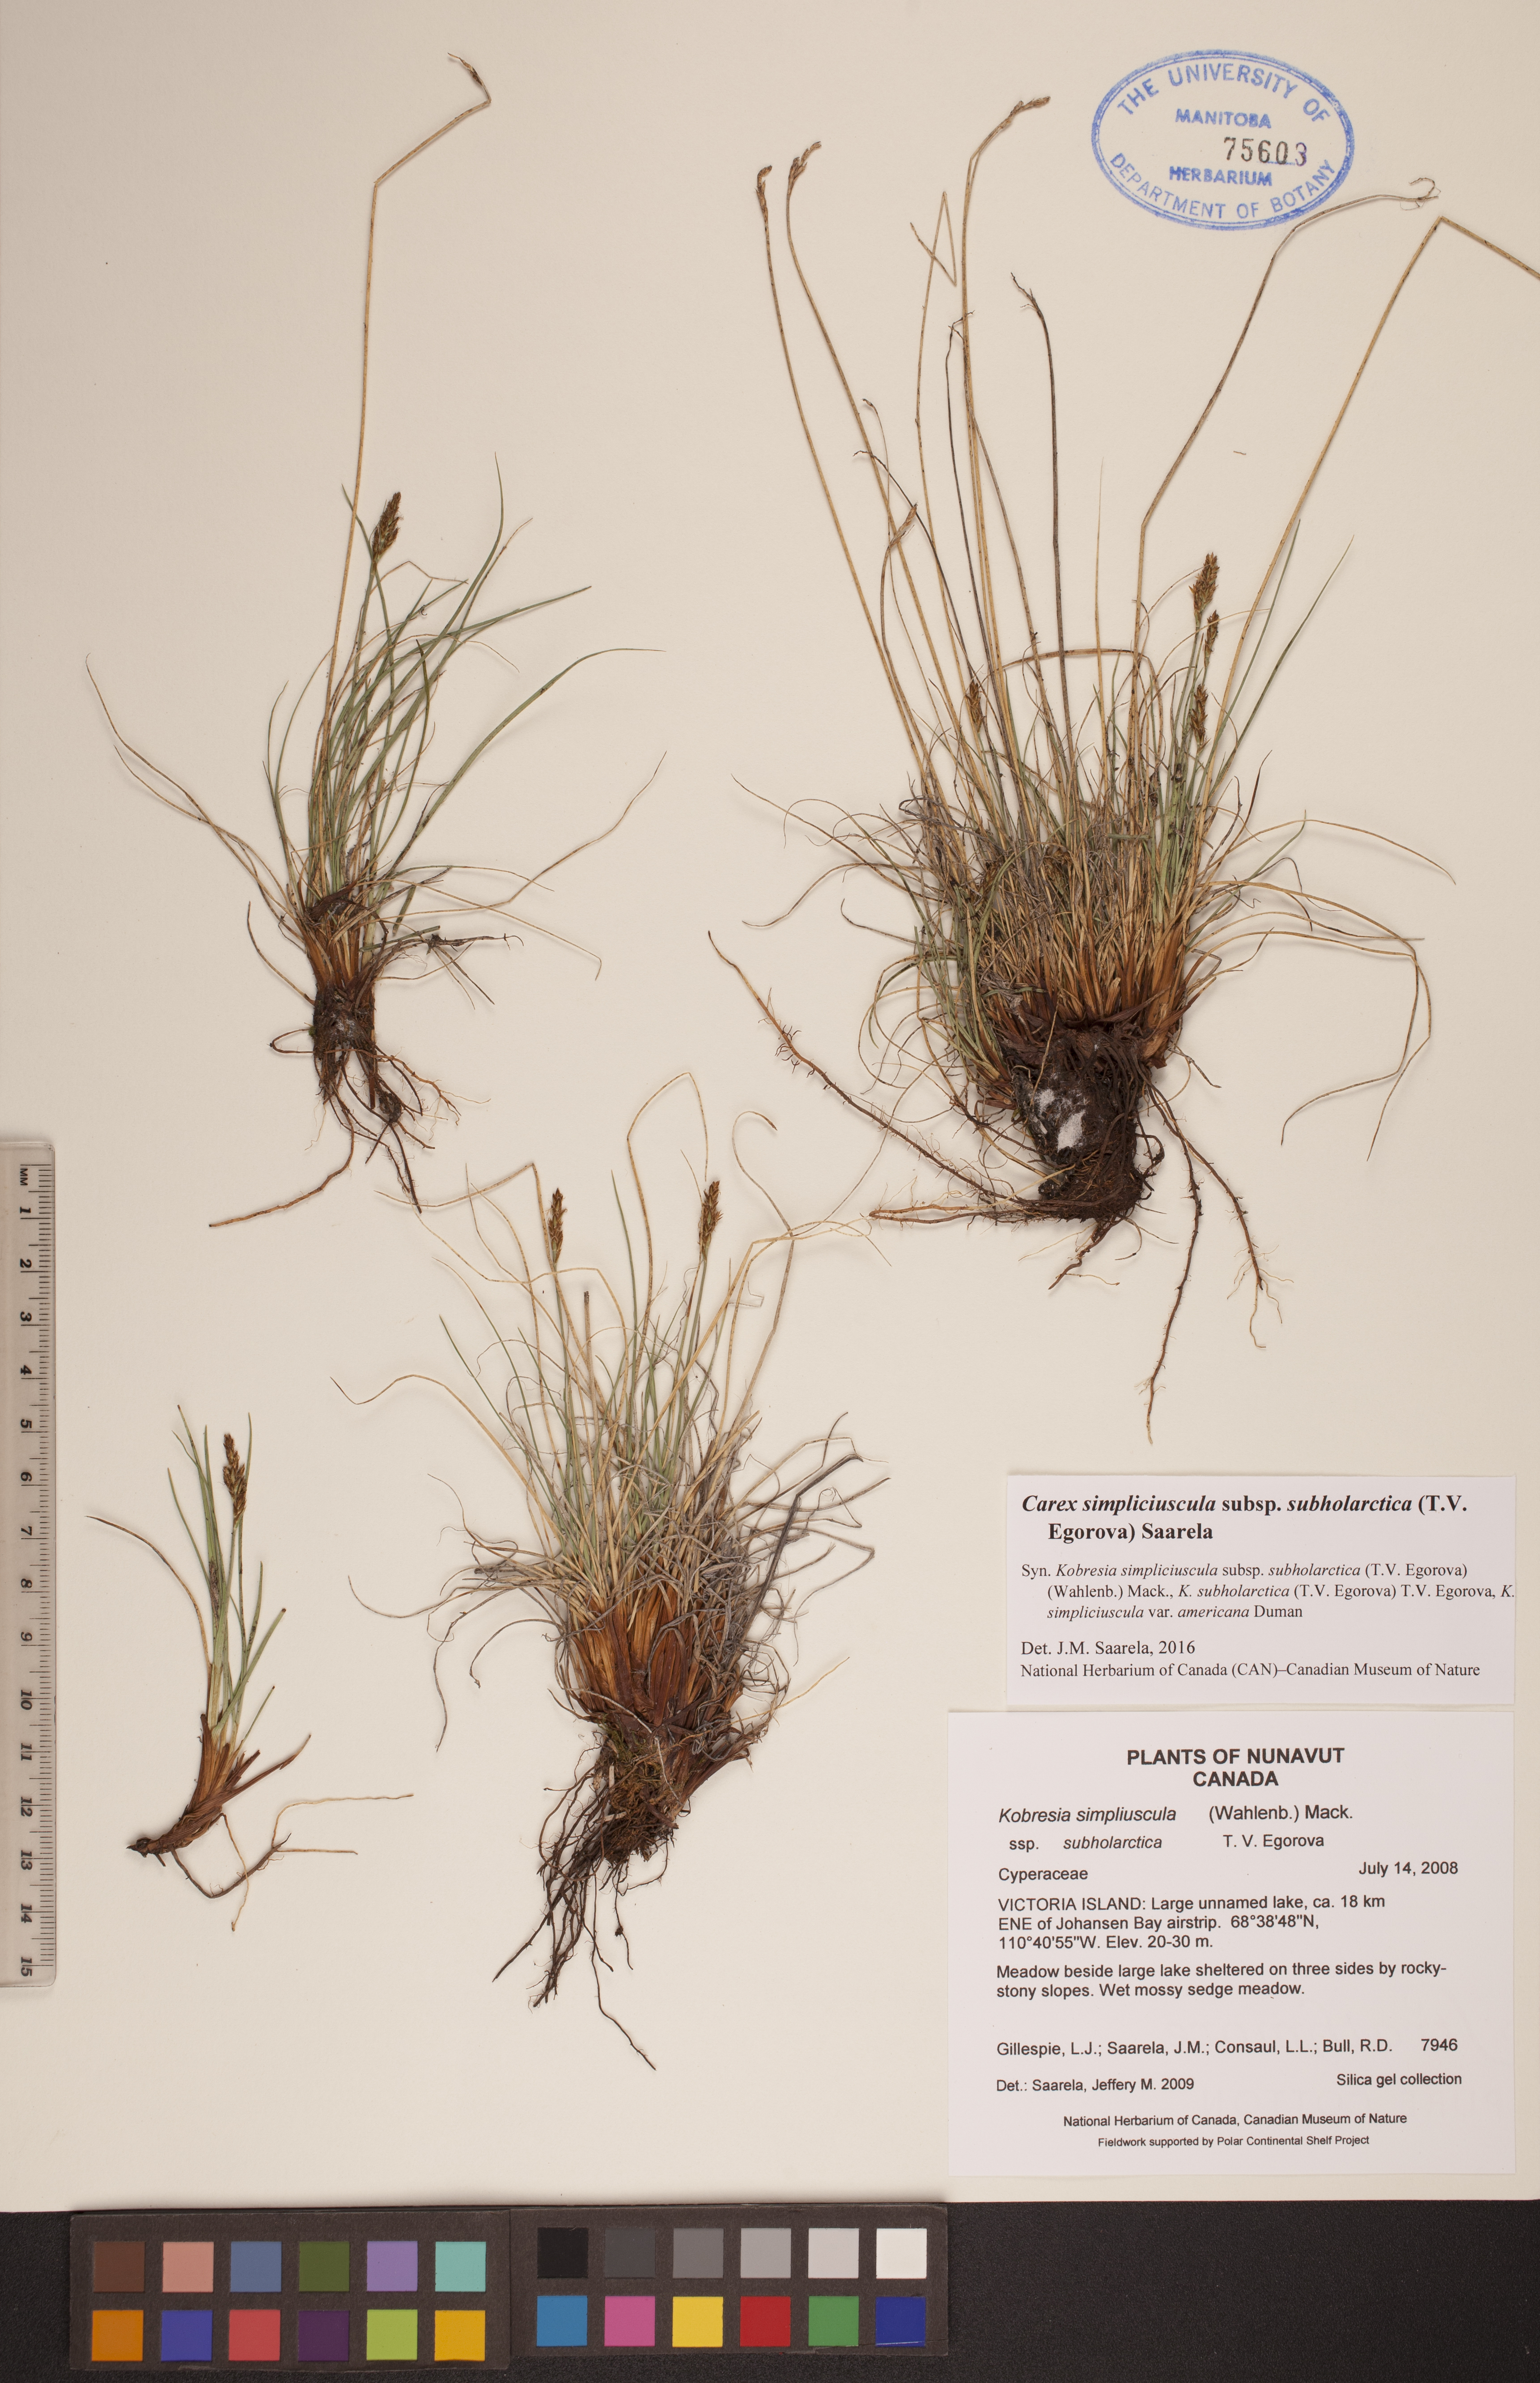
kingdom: Plantae
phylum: Tracheophyta
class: Liliopsida
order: Poales
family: Cyperaceae
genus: Carex
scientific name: Carex simpliciuscula
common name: Simple bog sedge
